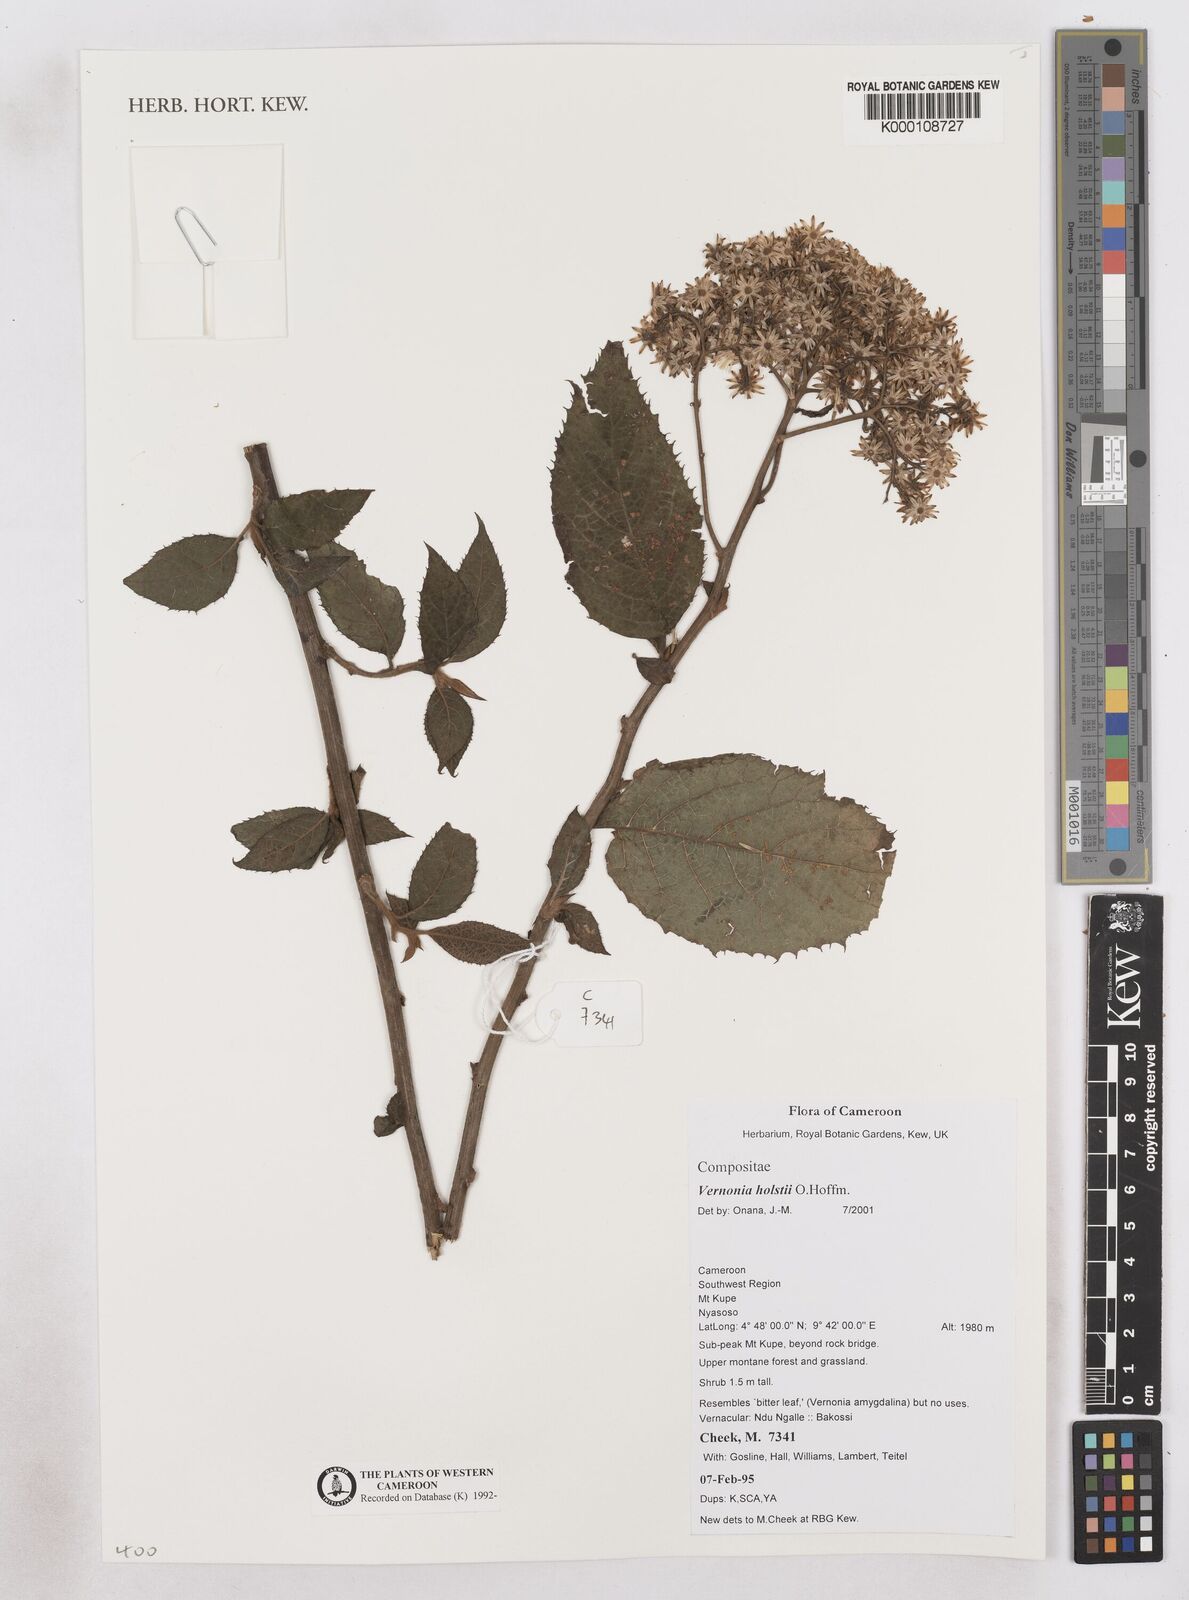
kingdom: Plantae
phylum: Tracheophyta
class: Magnoliopsida
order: Asterales
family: Asteraceae
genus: Vernonia
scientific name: Vernonia holstii
